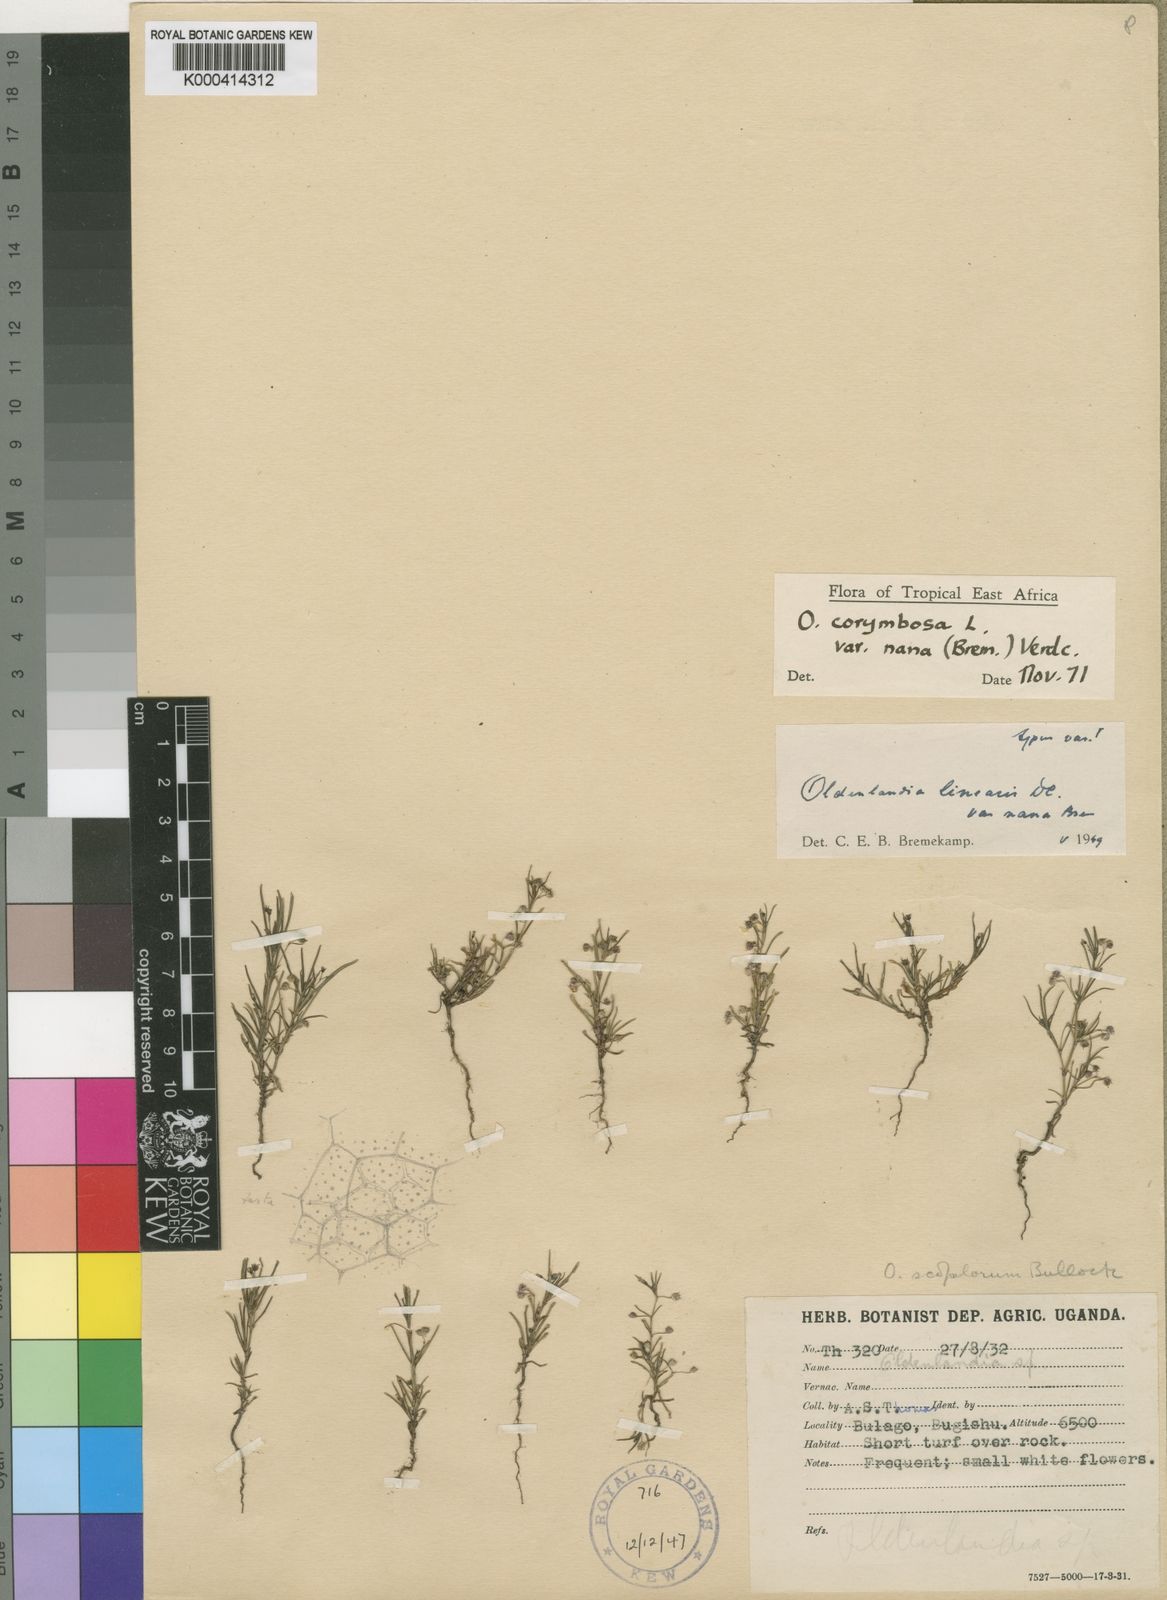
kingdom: Plantae
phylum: Tracheophyta
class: Magnoliopsida
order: Gentianales
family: Rubiaceae
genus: Oldenlandia
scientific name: Oldenlandia corymbosa
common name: Flat-top mille graines
